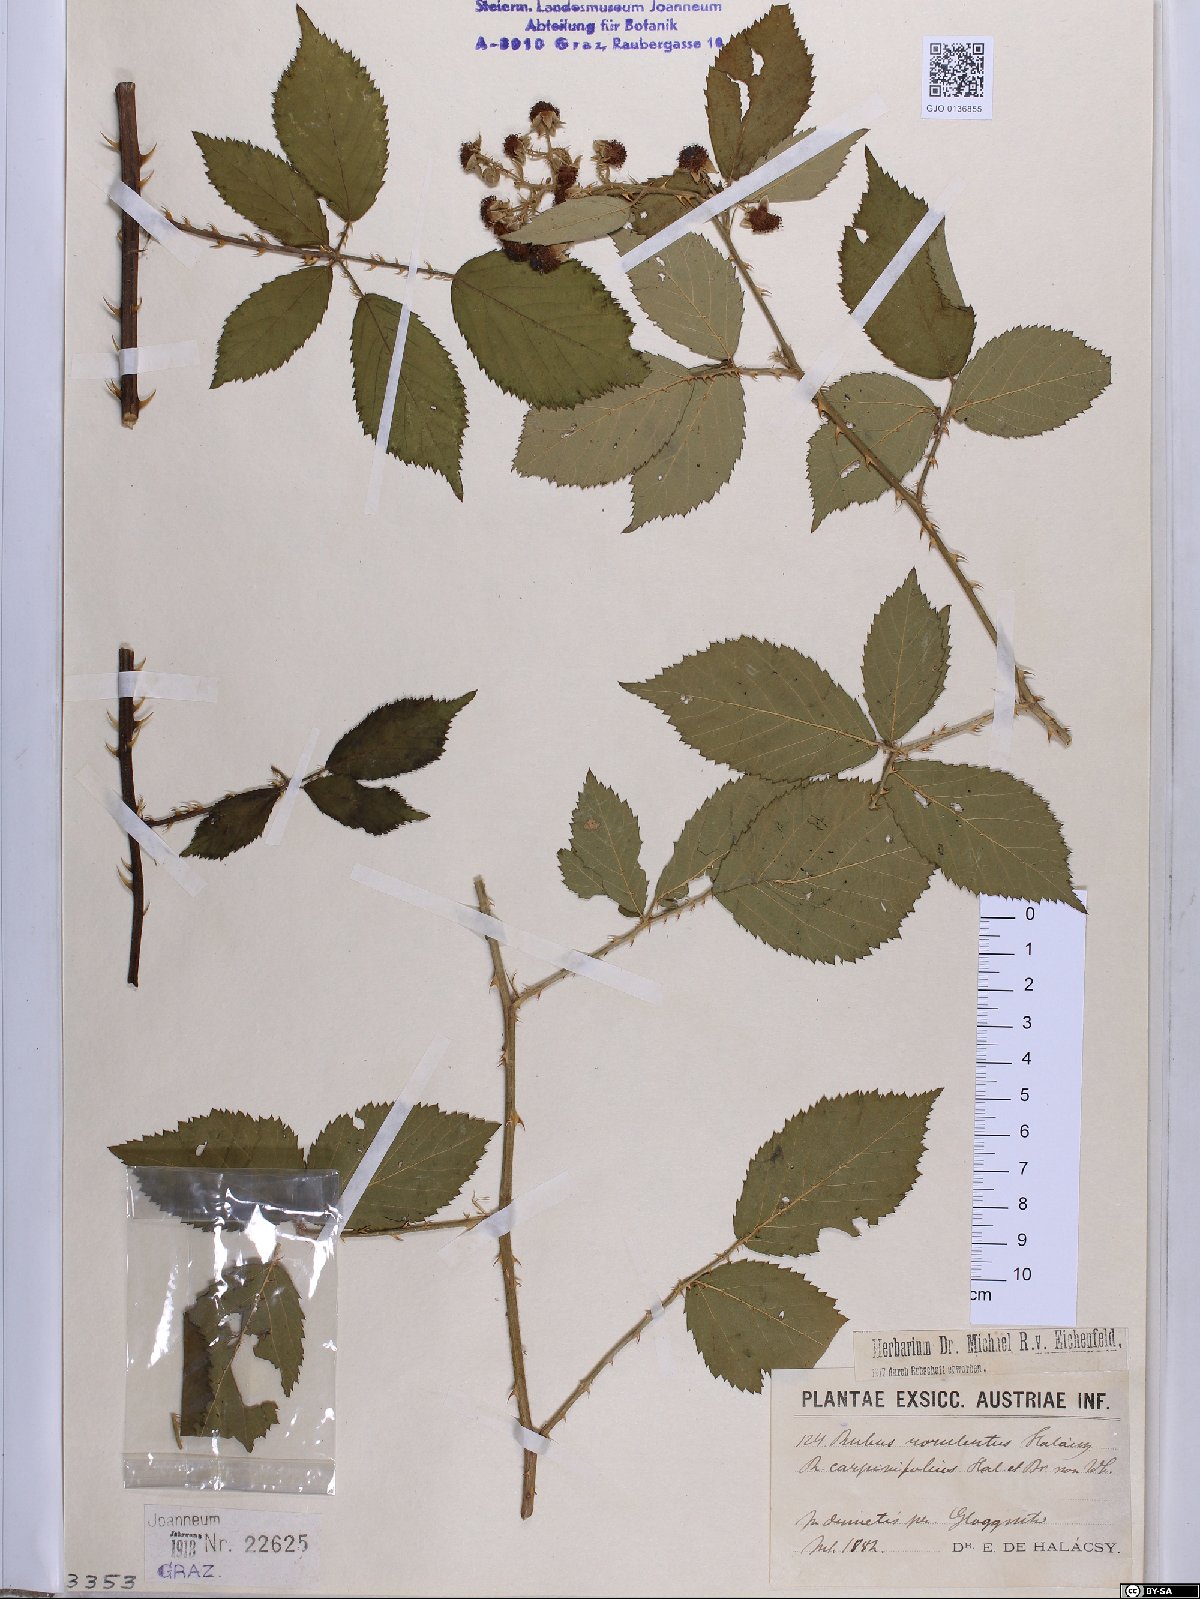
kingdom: Plantae
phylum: Tracheophyta
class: Magnoliopsida
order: Rosales
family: Rosaceae
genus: Rubus
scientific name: Rubus rorulentus
